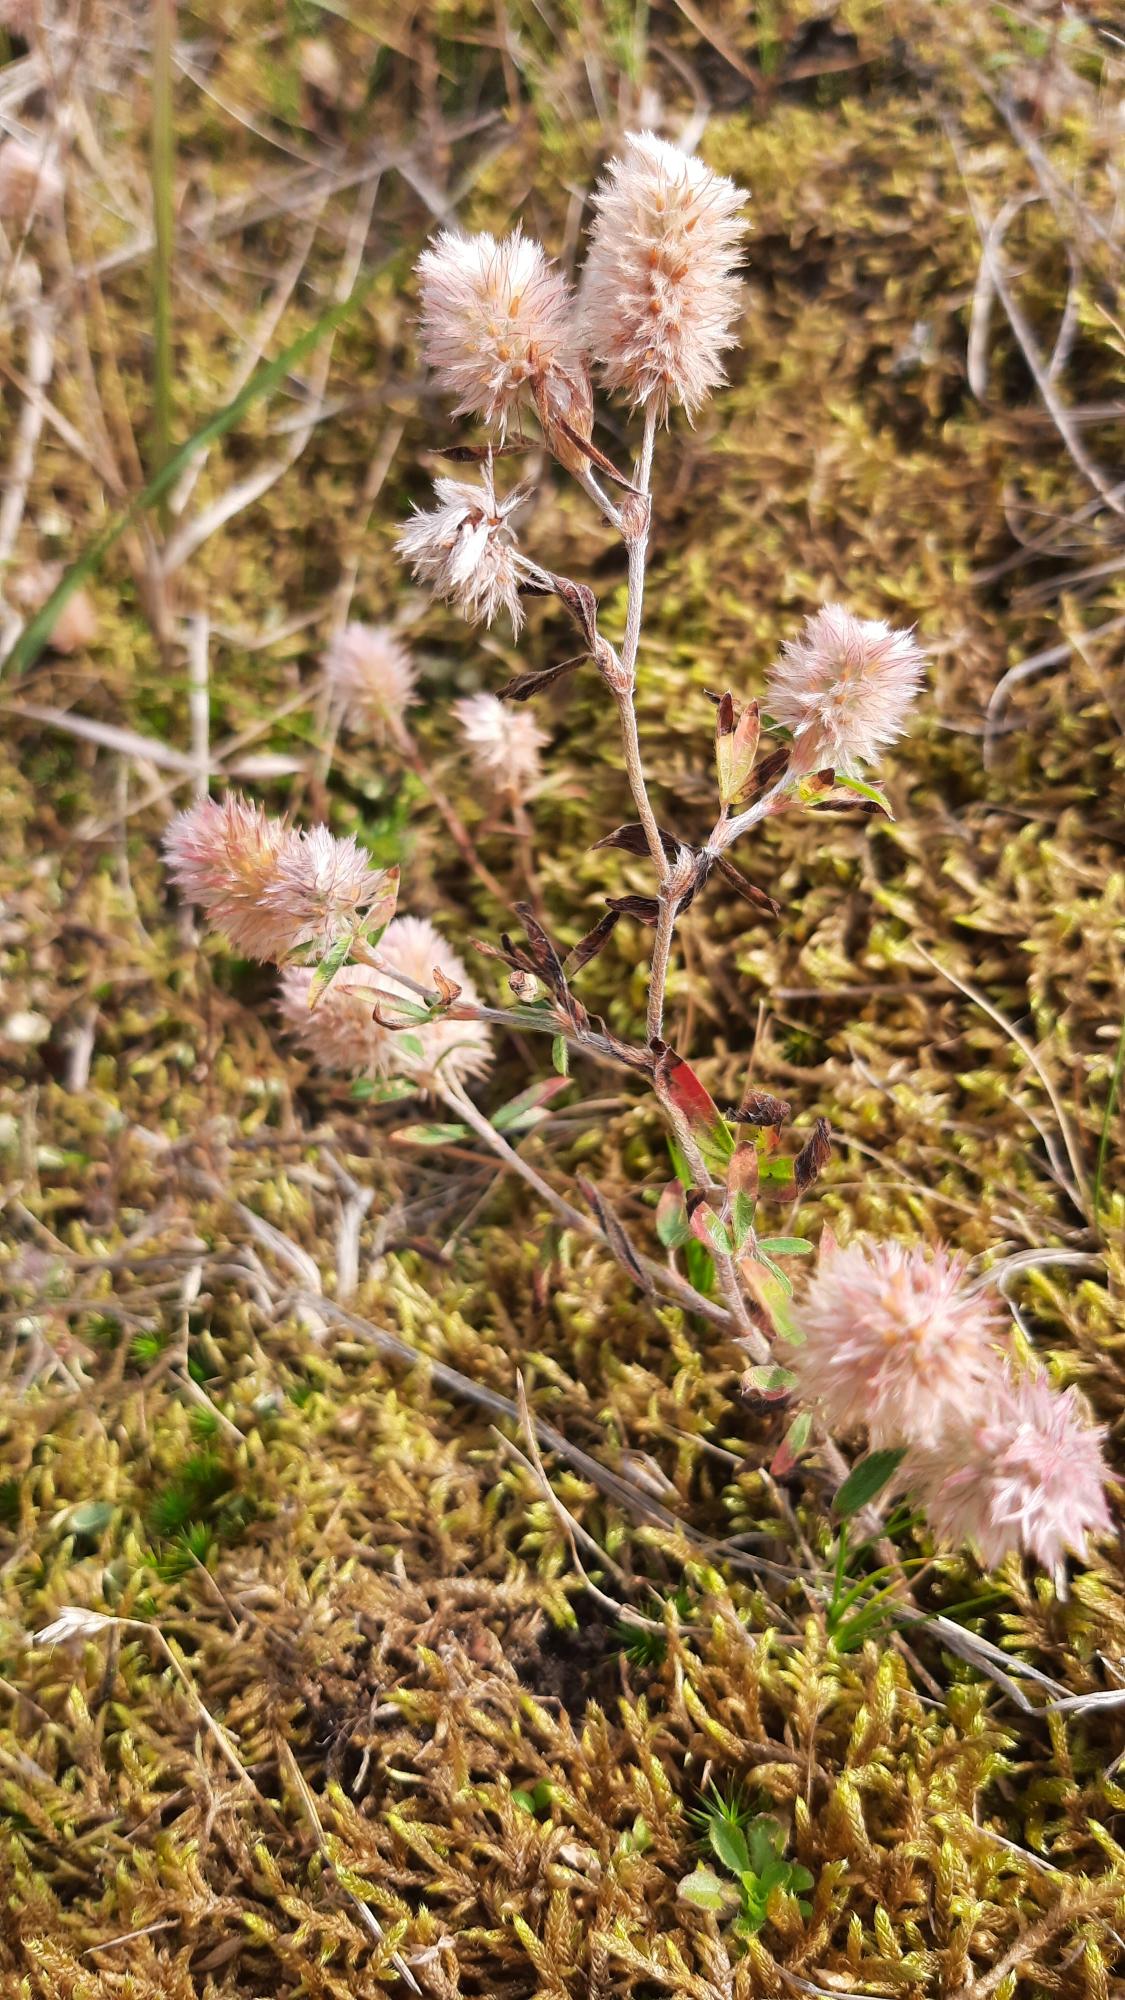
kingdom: Plantae
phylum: Tracheophyta
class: Magnoliopsida
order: Fabales
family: Fabaceae
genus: Trifolium
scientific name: Trifolium arvense
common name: Hare-kløver
